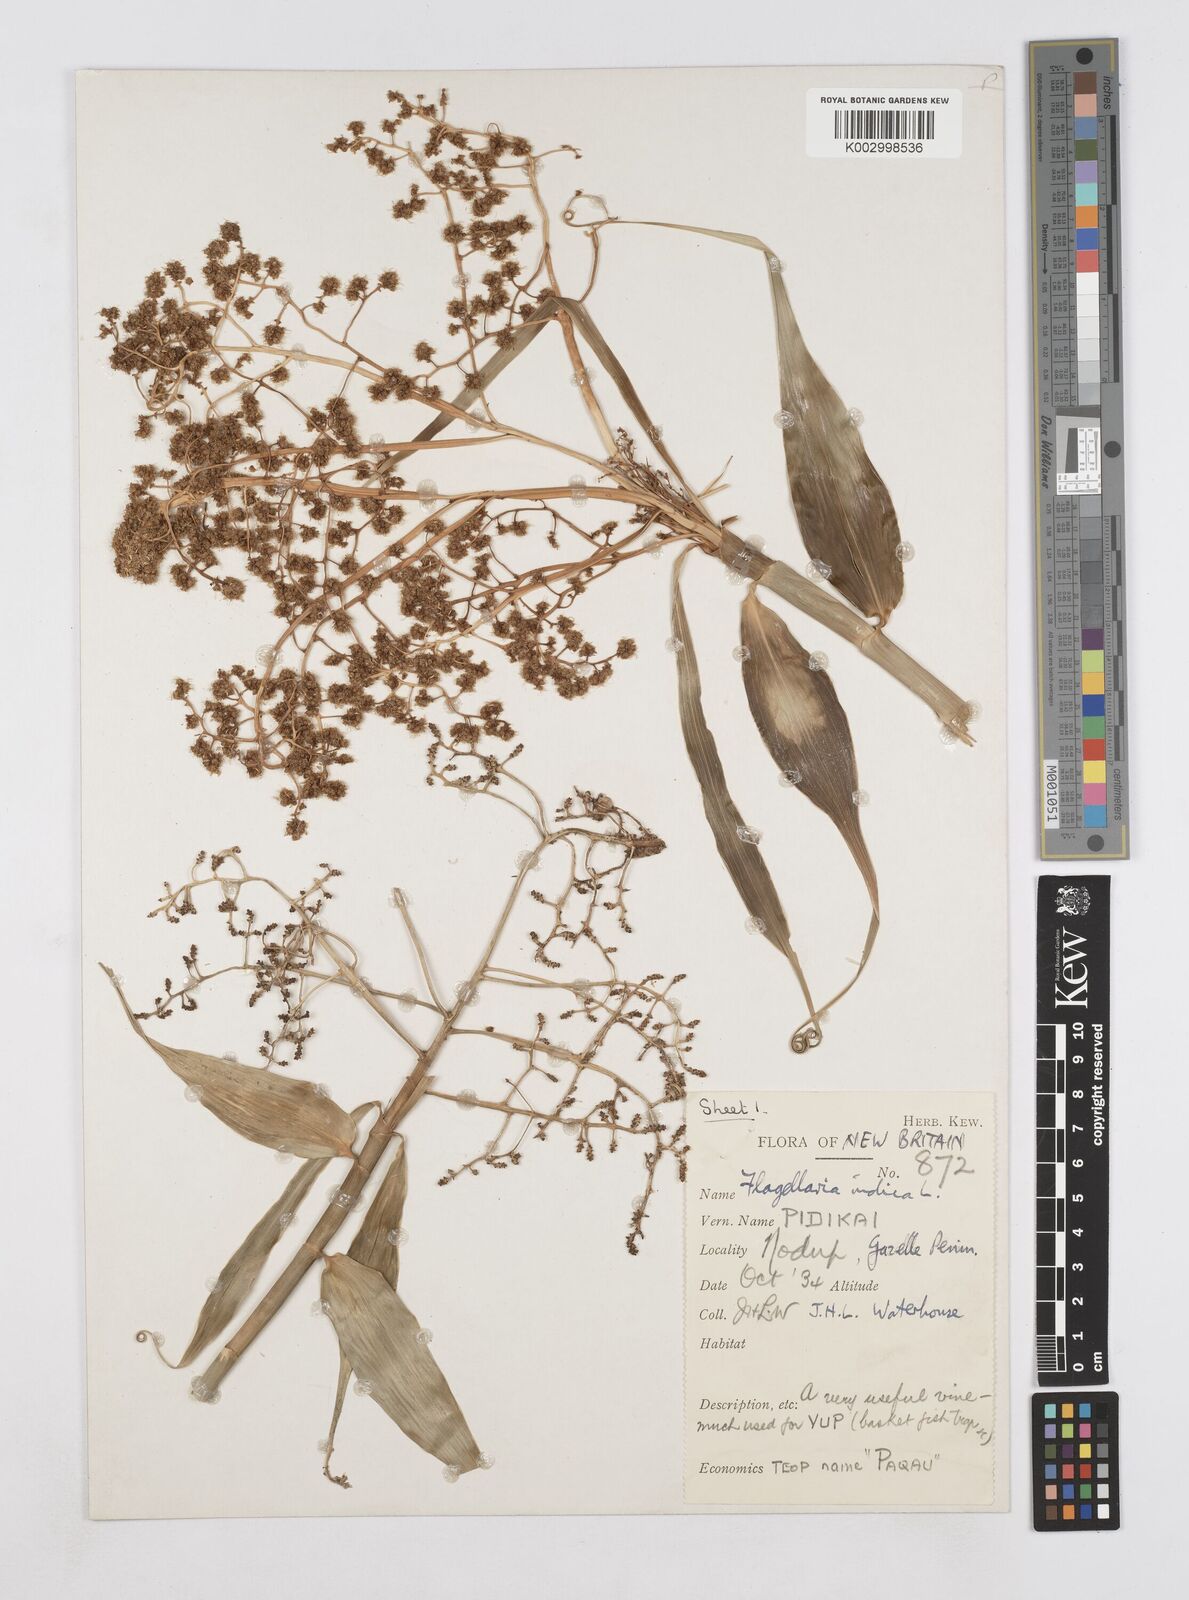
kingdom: Plantae
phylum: Tracheophyta
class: Liliopsida
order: Poales
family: Flagellariaceae
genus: Flagellaria
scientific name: Flagellaria indica
